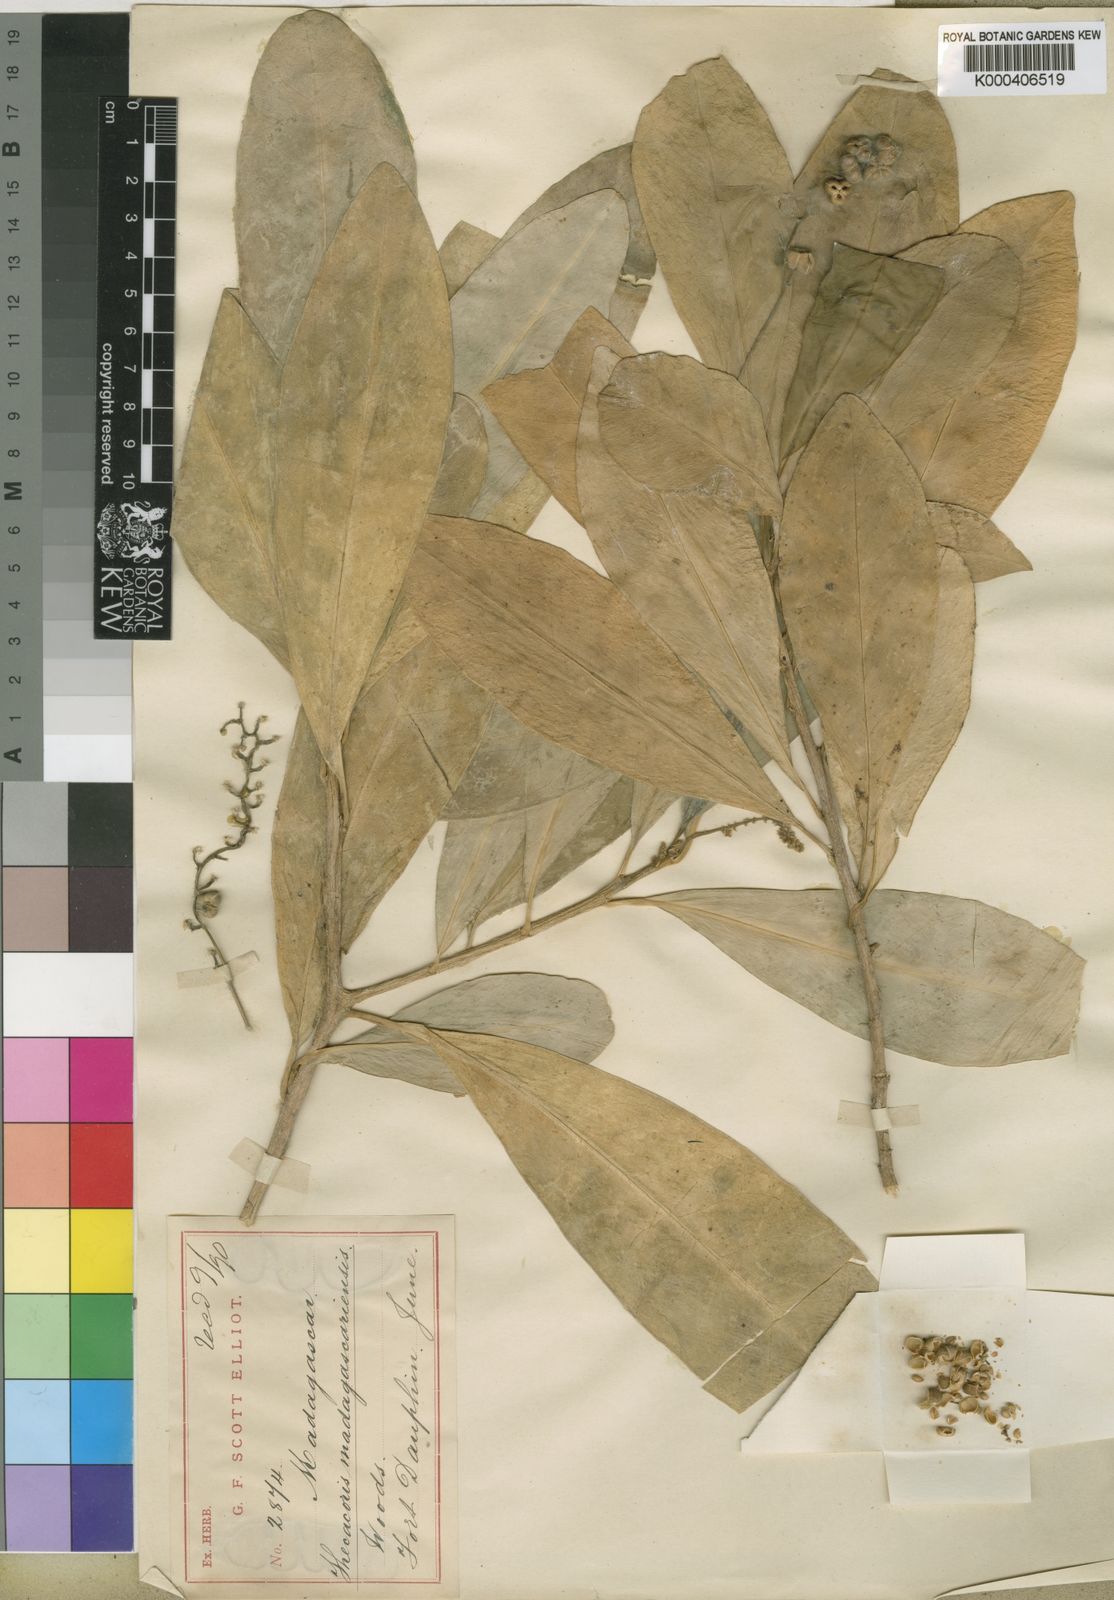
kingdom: Plantae
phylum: Tracheophyta
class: Magnoliopsida
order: Malpighiales
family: Phyllanthaceae
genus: Thecacoris
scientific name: Thecacoris madagascariensis
